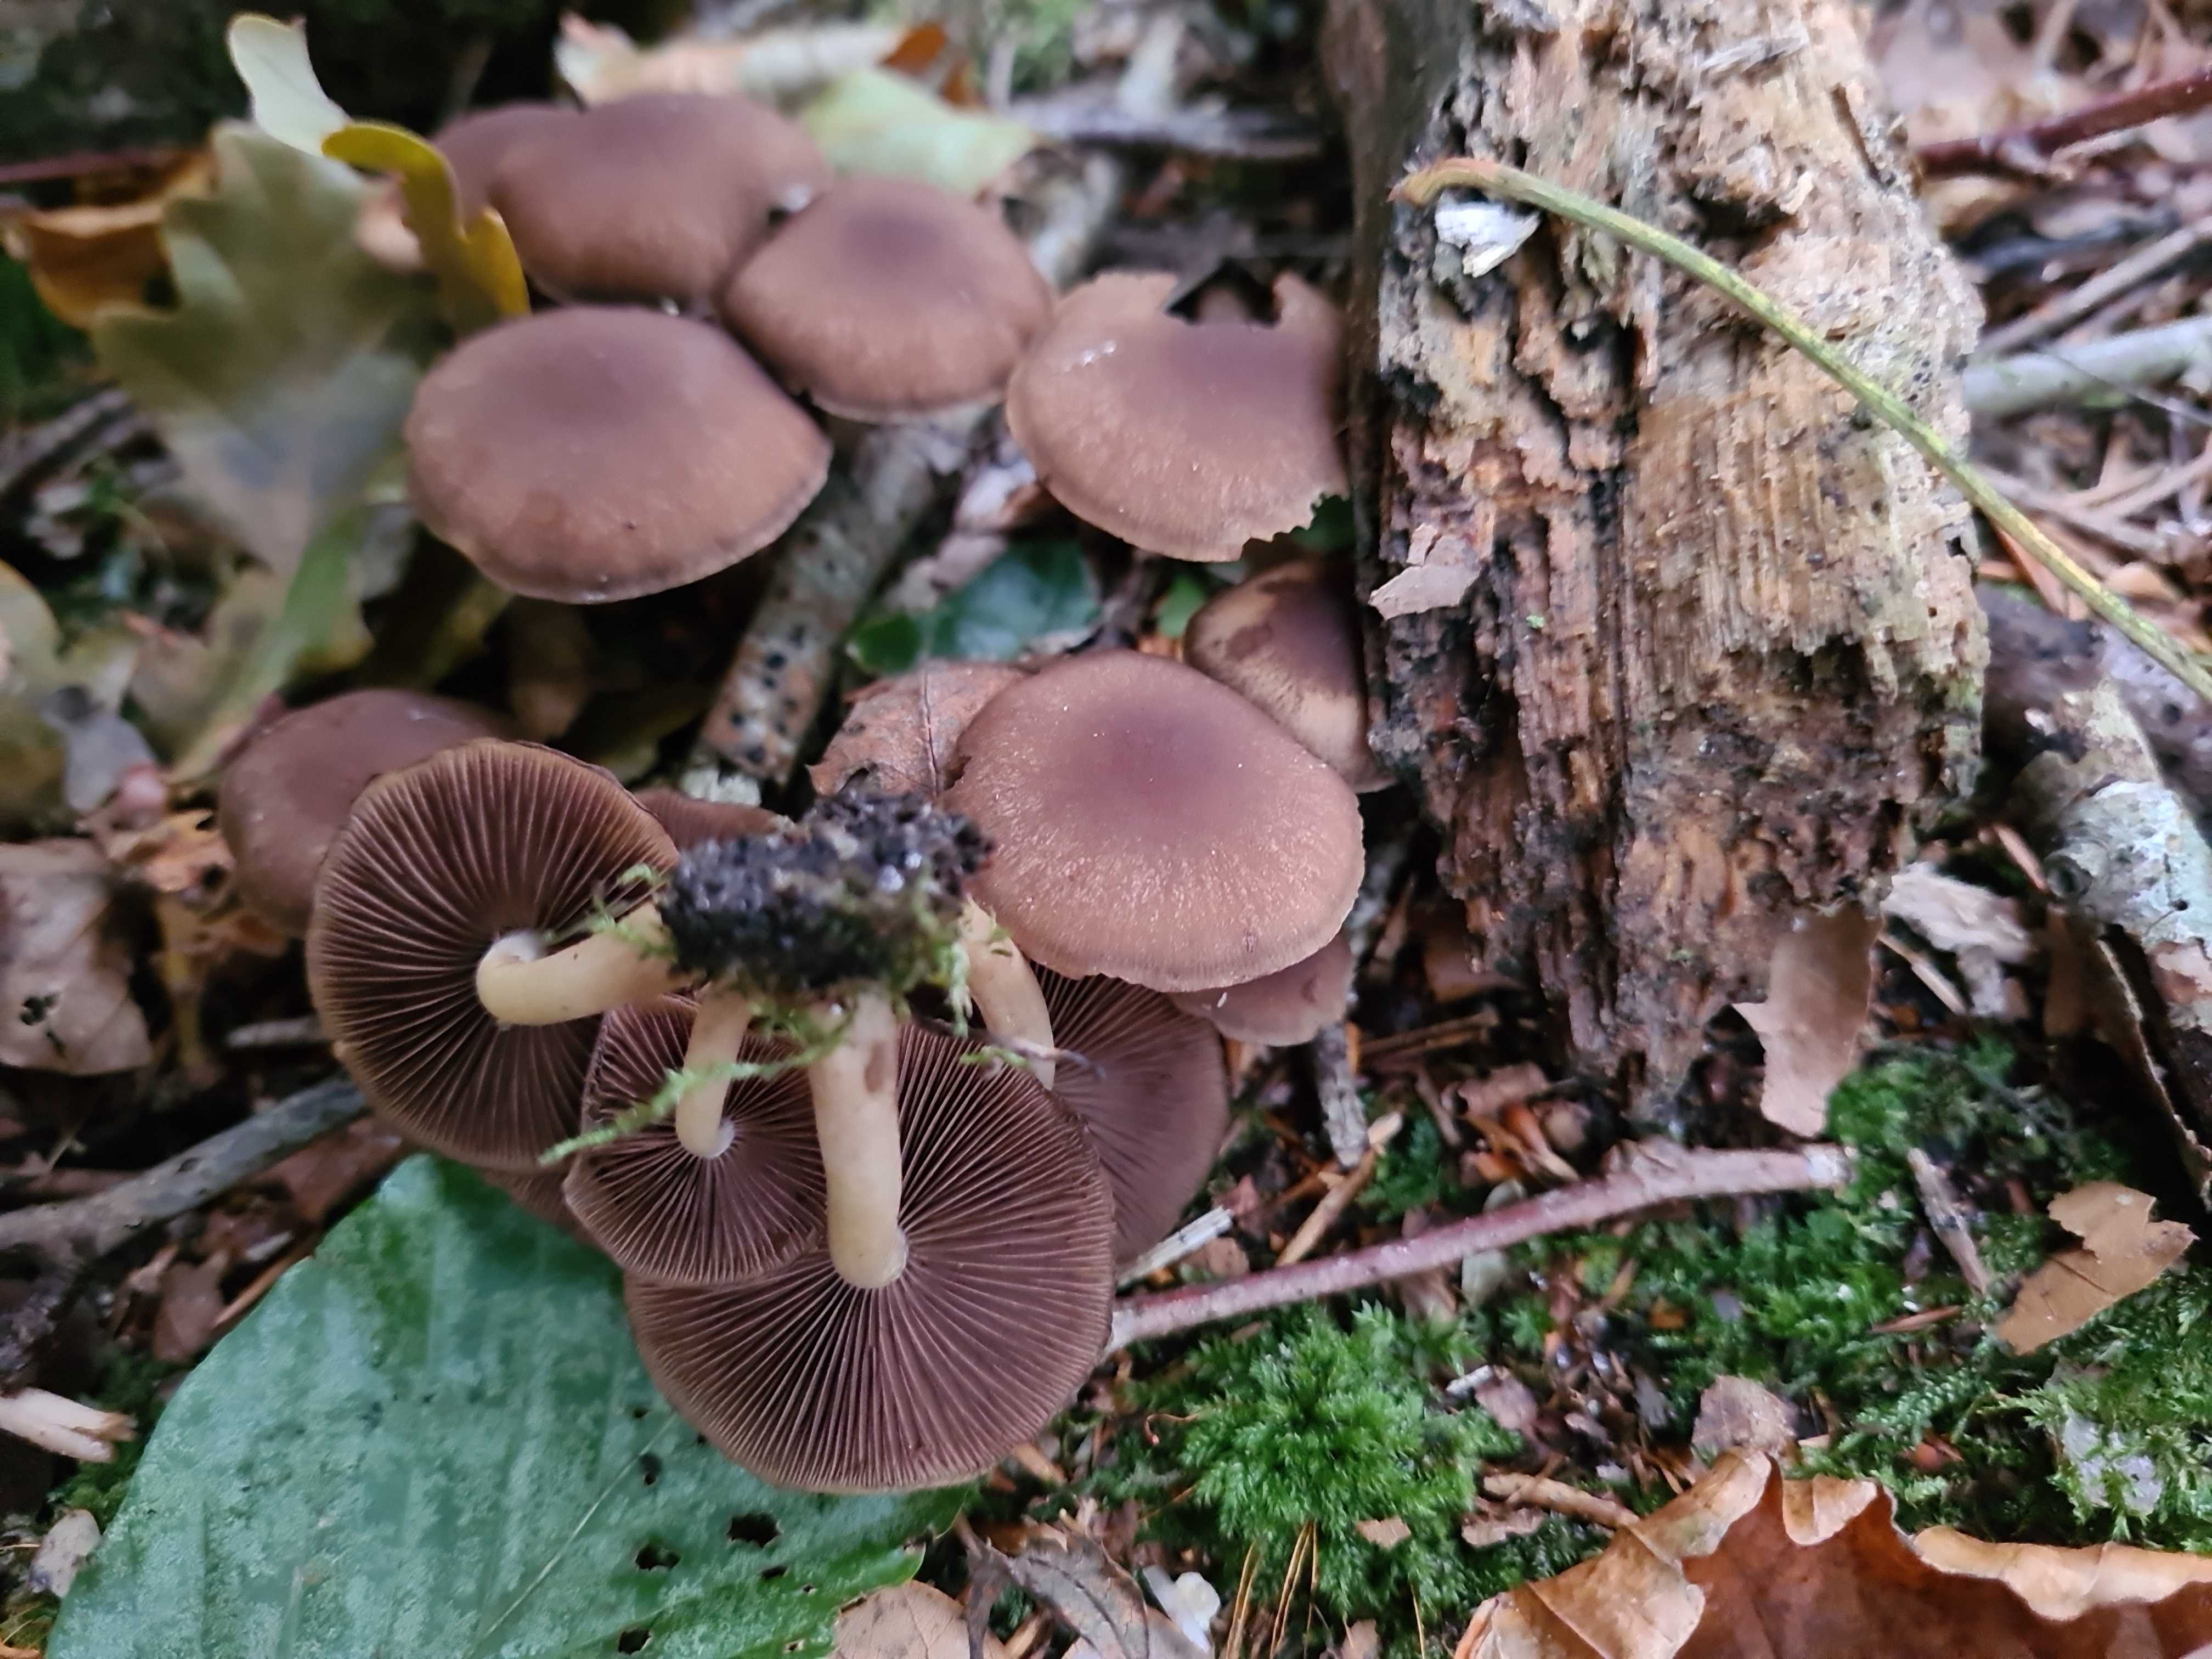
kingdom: Fungi
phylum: Basidiomycota
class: Agaricomycetes
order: Agaricales
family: Psathyrellaceae
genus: Psathyrella
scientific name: Psathyrella piluliformis
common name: lysstokket mørkhat
